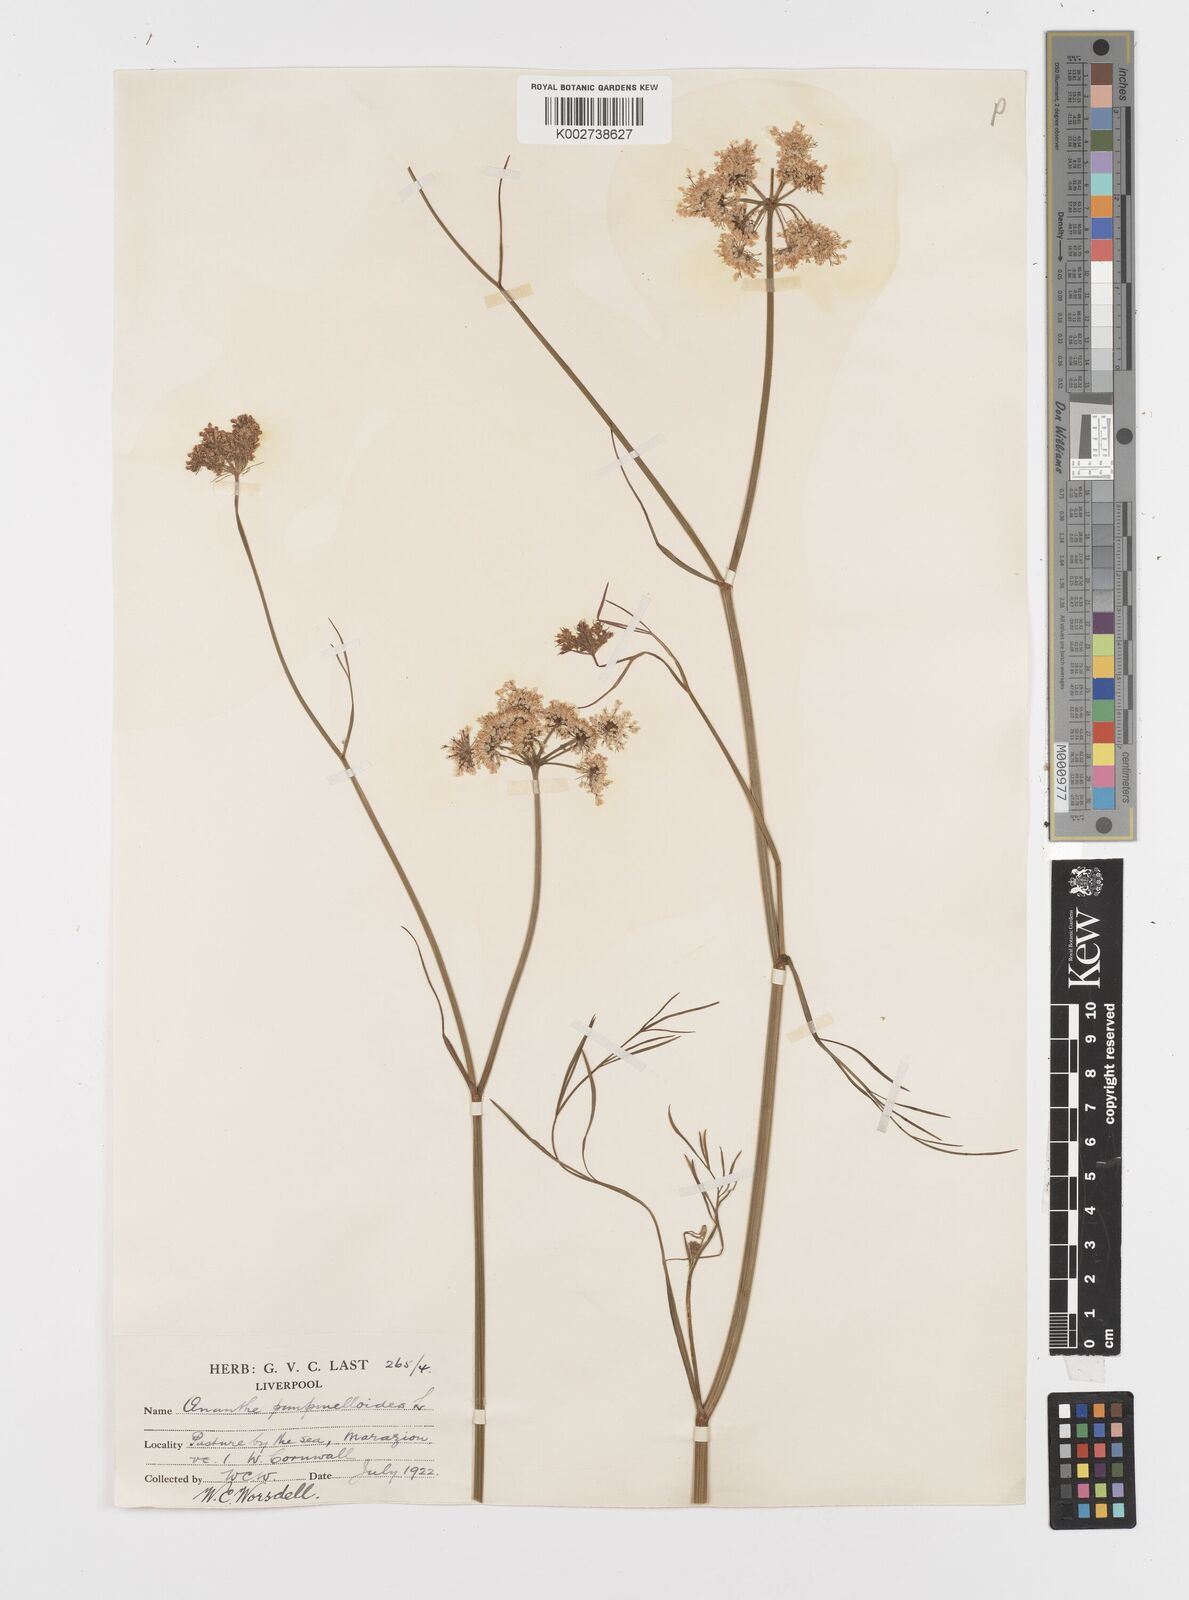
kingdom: Plantae
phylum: Tracheophyta
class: Magnoliopsida
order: Apiales
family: Apiaceae
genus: Oenanthe
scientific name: Oenanthe pimpinelloides
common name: Corky-fruited water-dropwort
